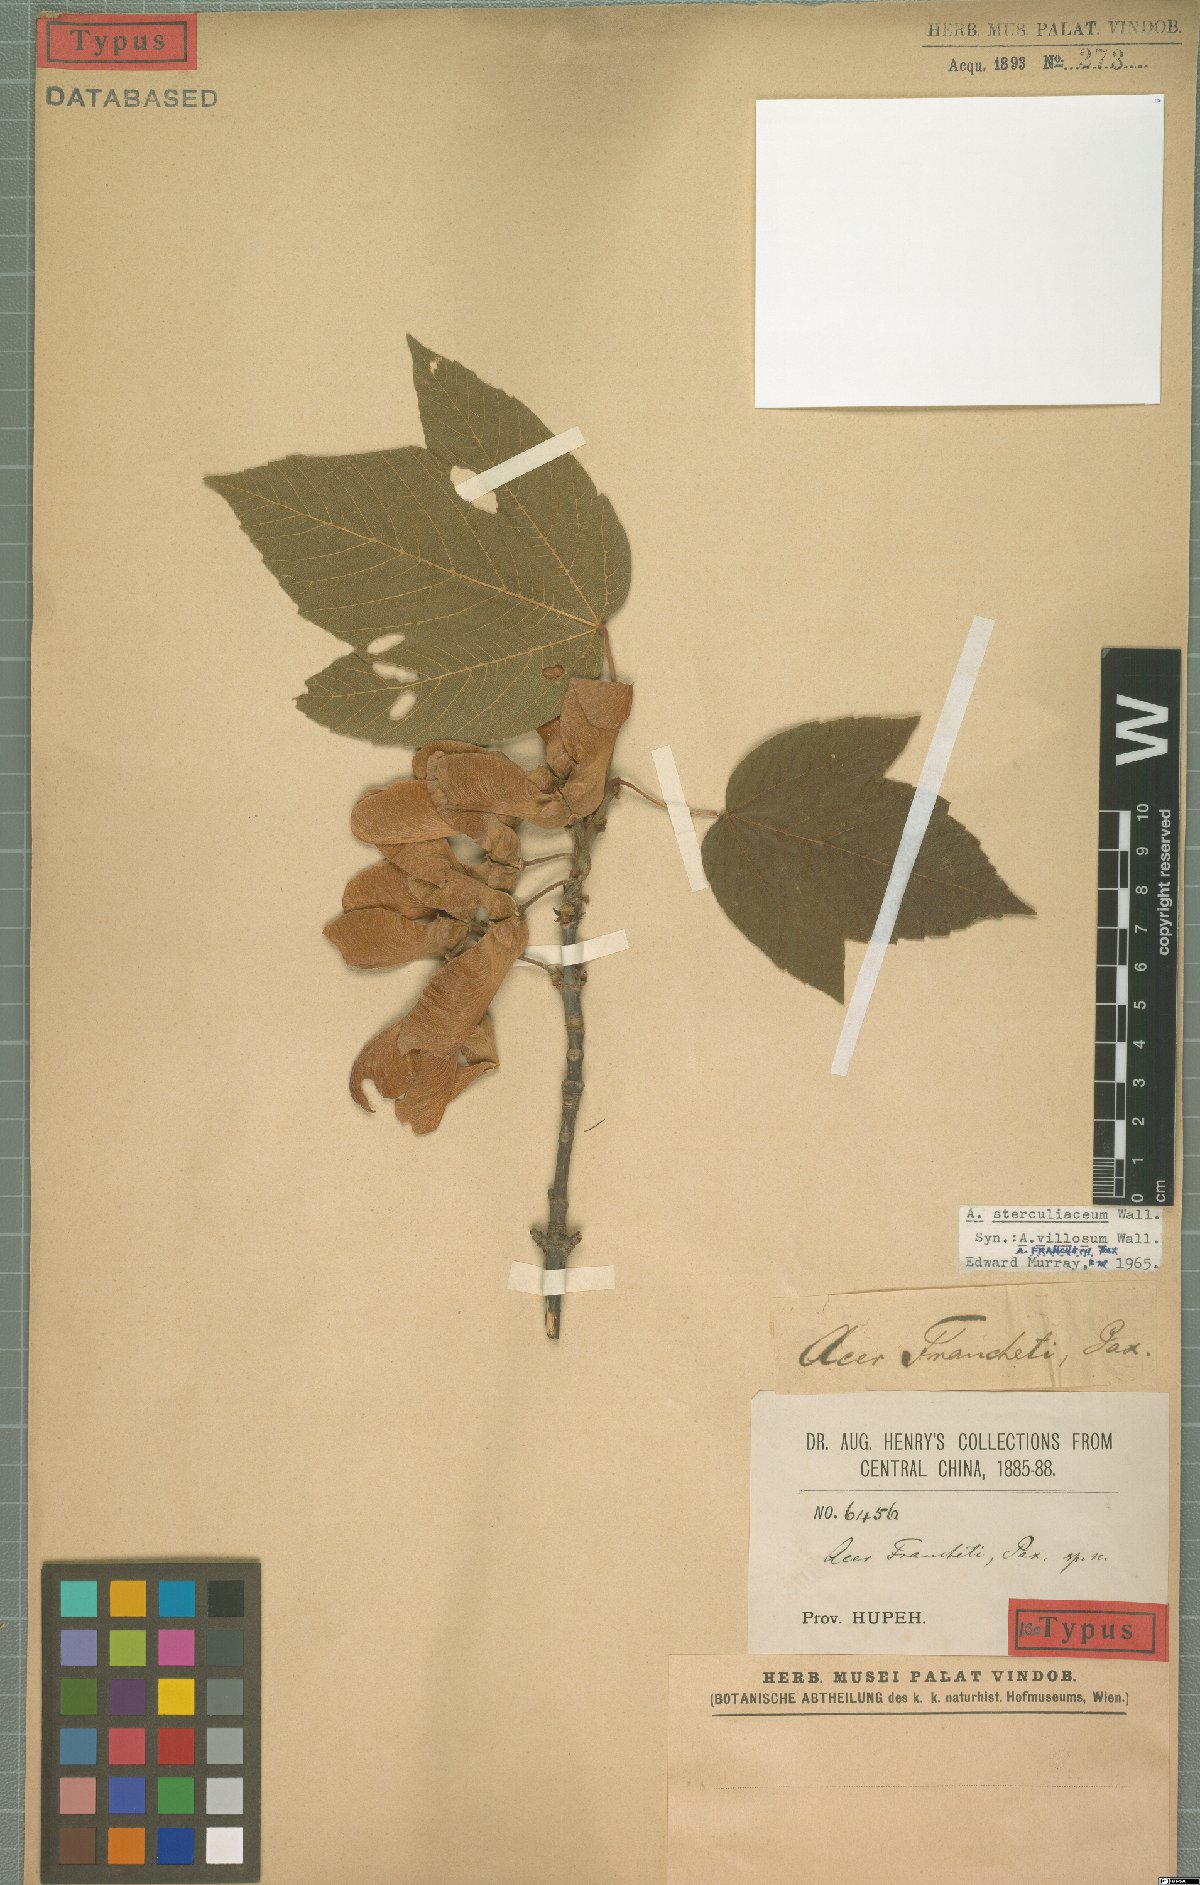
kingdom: Plantae
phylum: Tracheophyta
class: Magnoliopsida
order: Sapindales
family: Sapindaceae
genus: Acer
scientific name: Acer sterculiaceum
